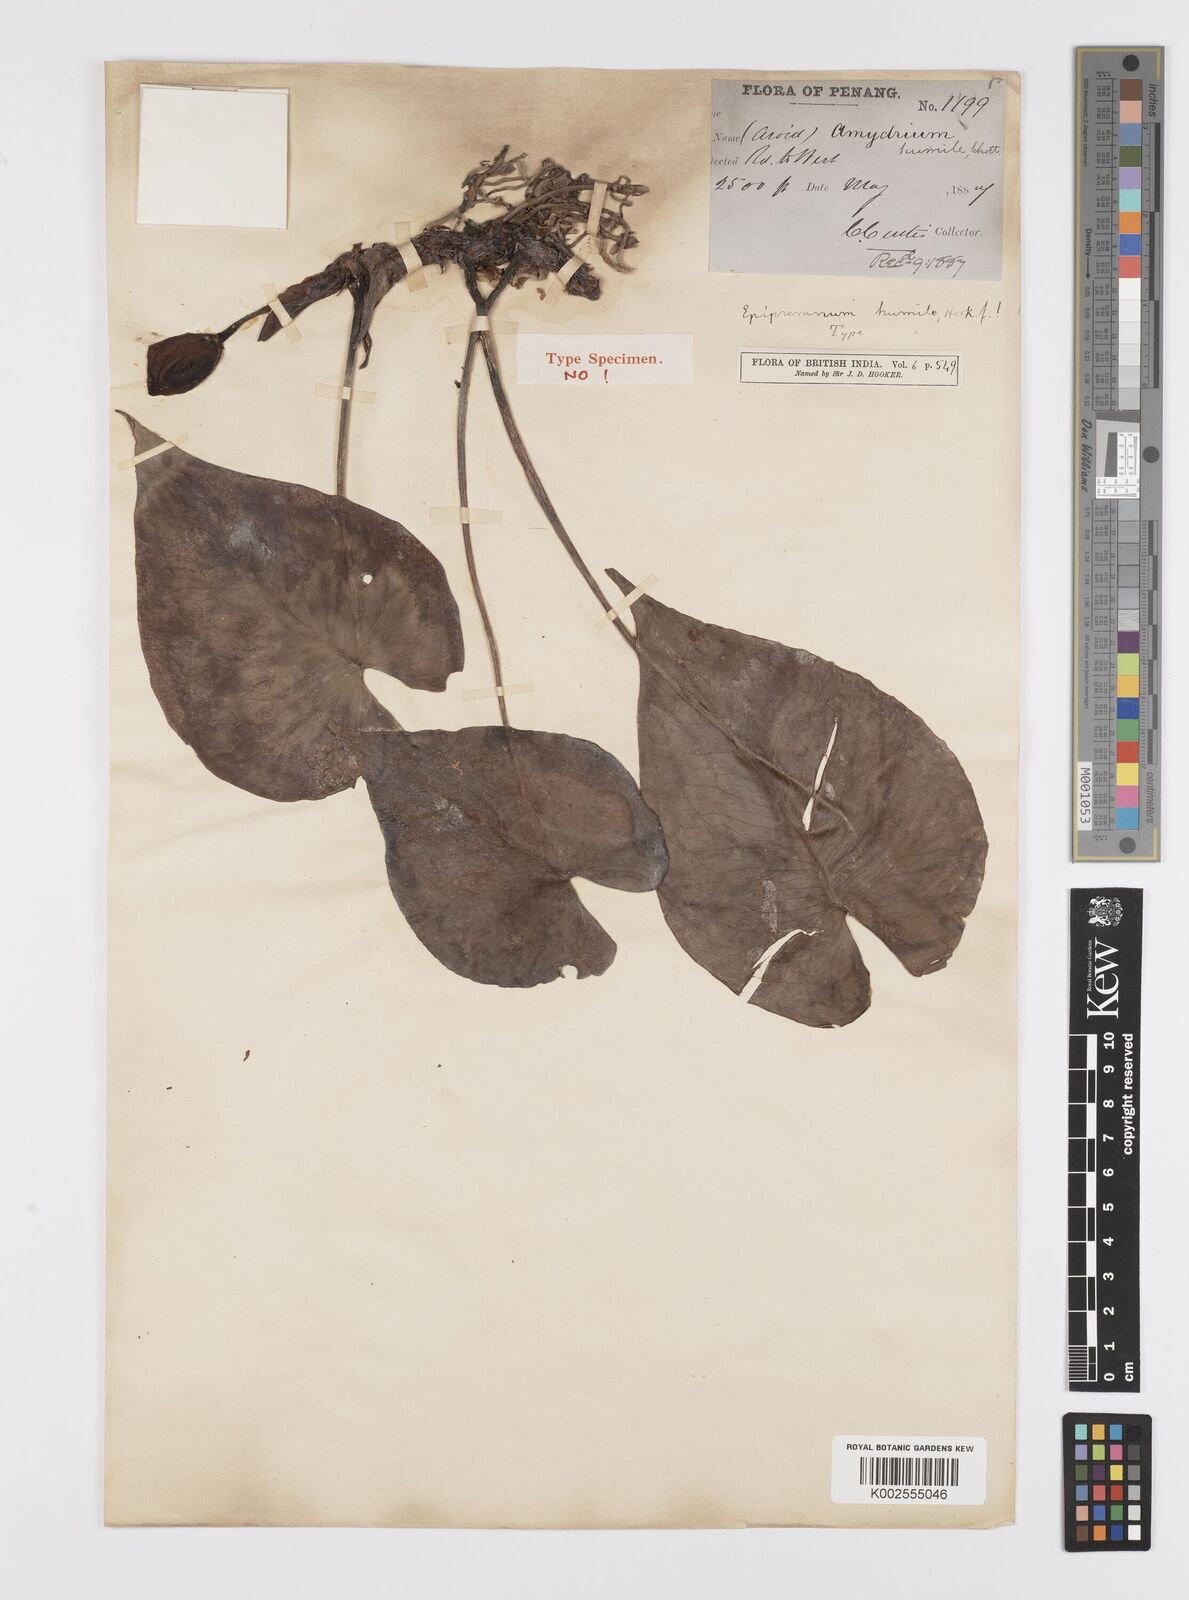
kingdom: Plantae
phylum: Tracheophyta
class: Liliopsida
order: Alismatales
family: Araceae
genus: Amydrium
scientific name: Amydrium humile
